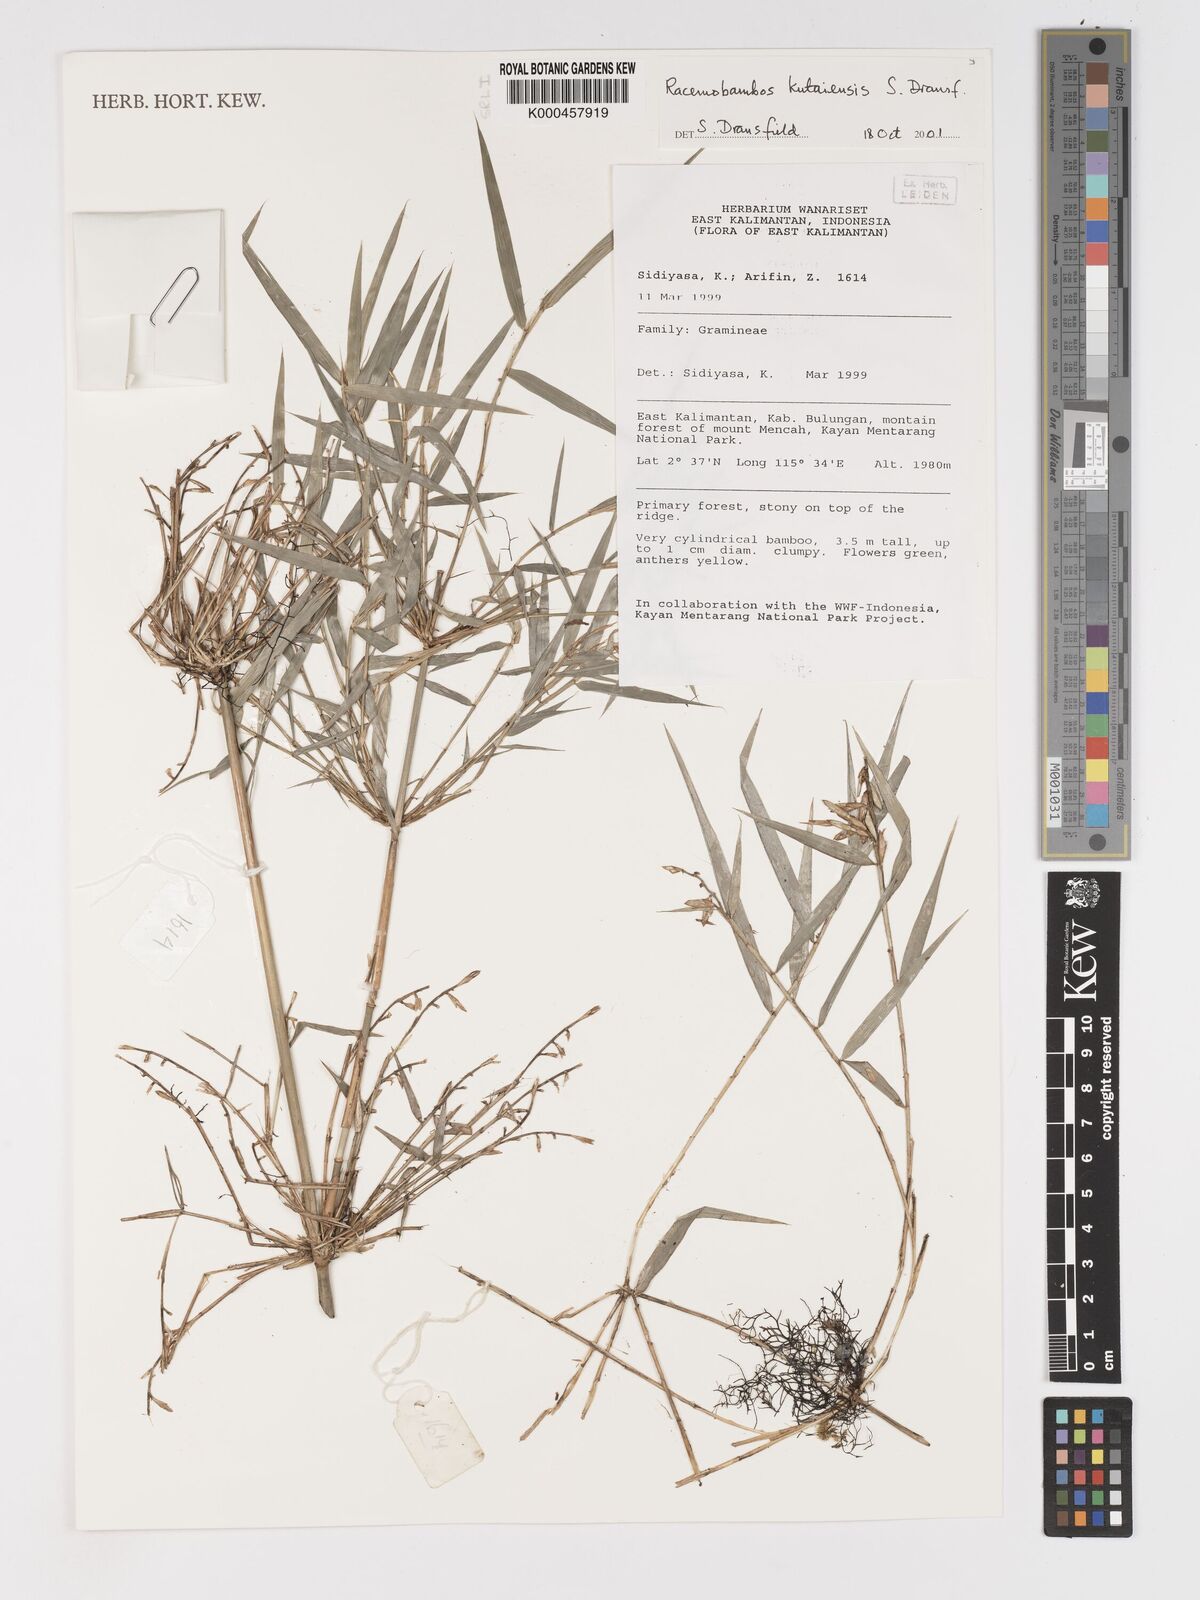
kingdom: Plantae
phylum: Tracheophyta
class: Liliopsida
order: Poales
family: Poaceae
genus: Racemobambos
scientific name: Racemobambos kutaiensis
